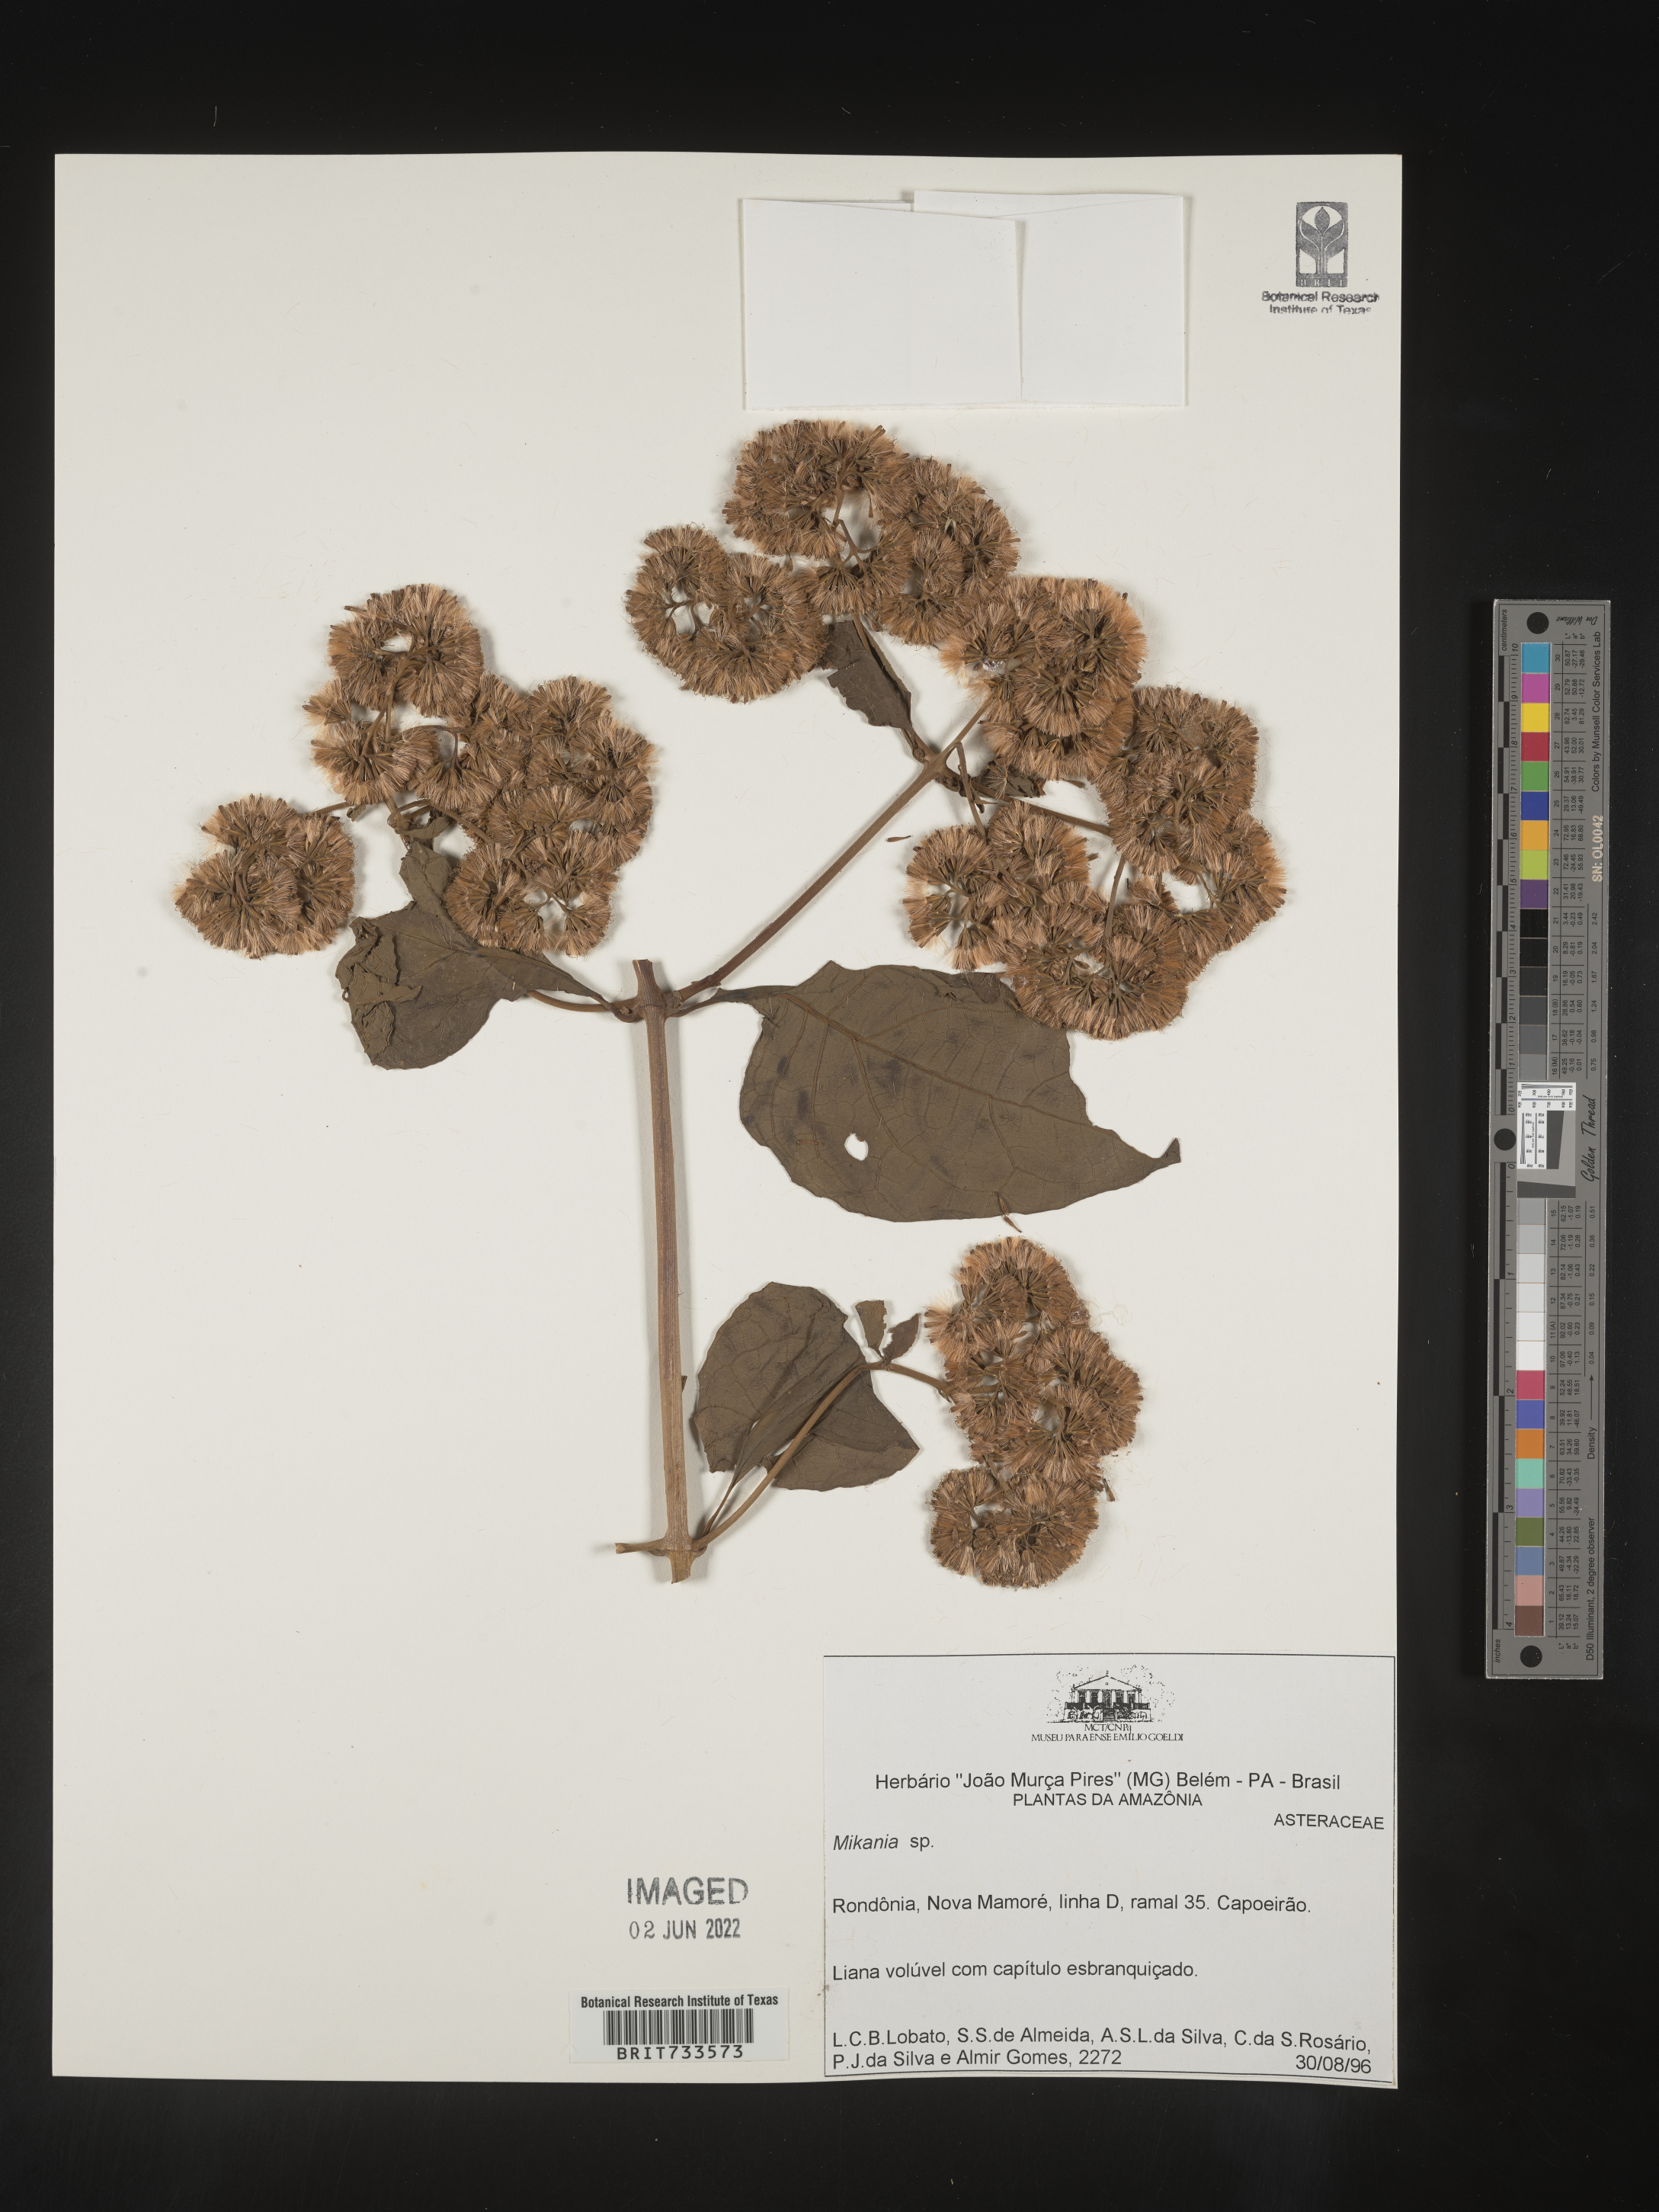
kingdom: Plantae
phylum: Tracheophyta
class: Magnoliopsida
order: Asterales
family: Asteraceae
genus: Mikania
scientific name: Mikania
